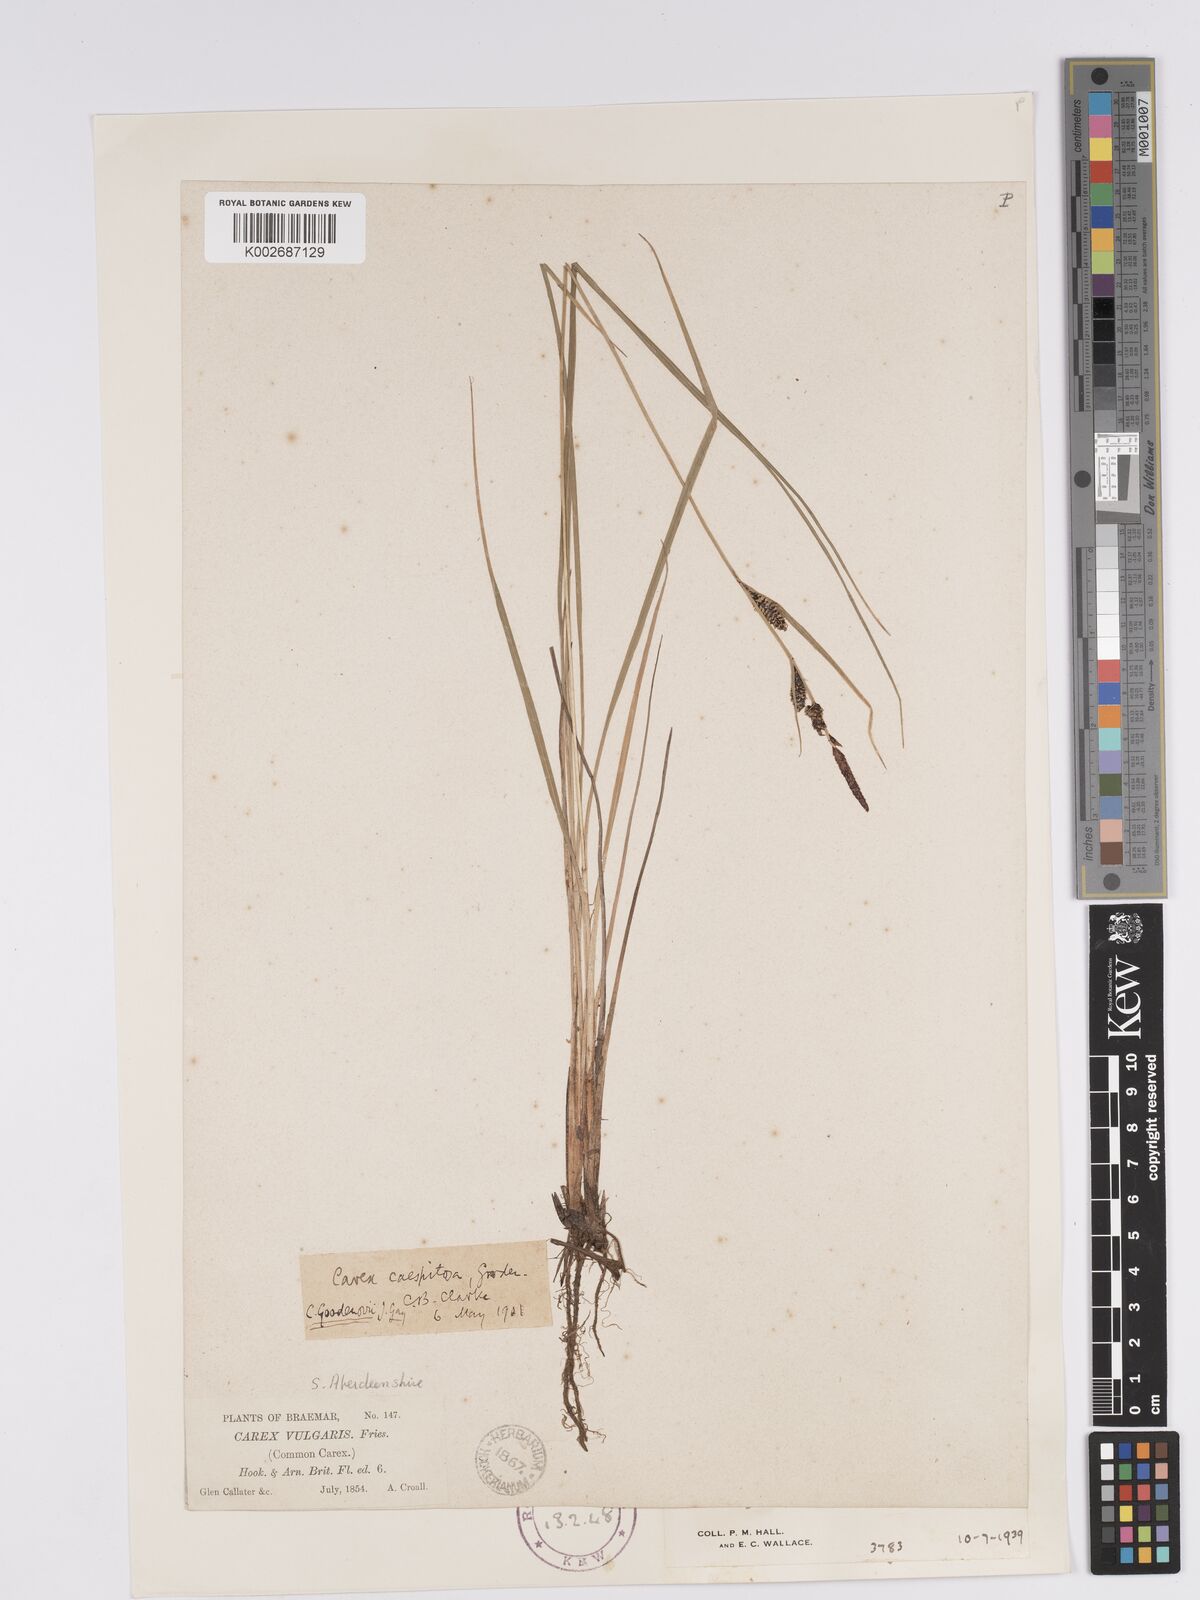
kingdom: Plantae
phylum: Tracheophyta
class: Liliopsida
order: Poales
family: Cyperaceae
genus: Carex
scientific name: Carex nigra
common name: Common sedge
